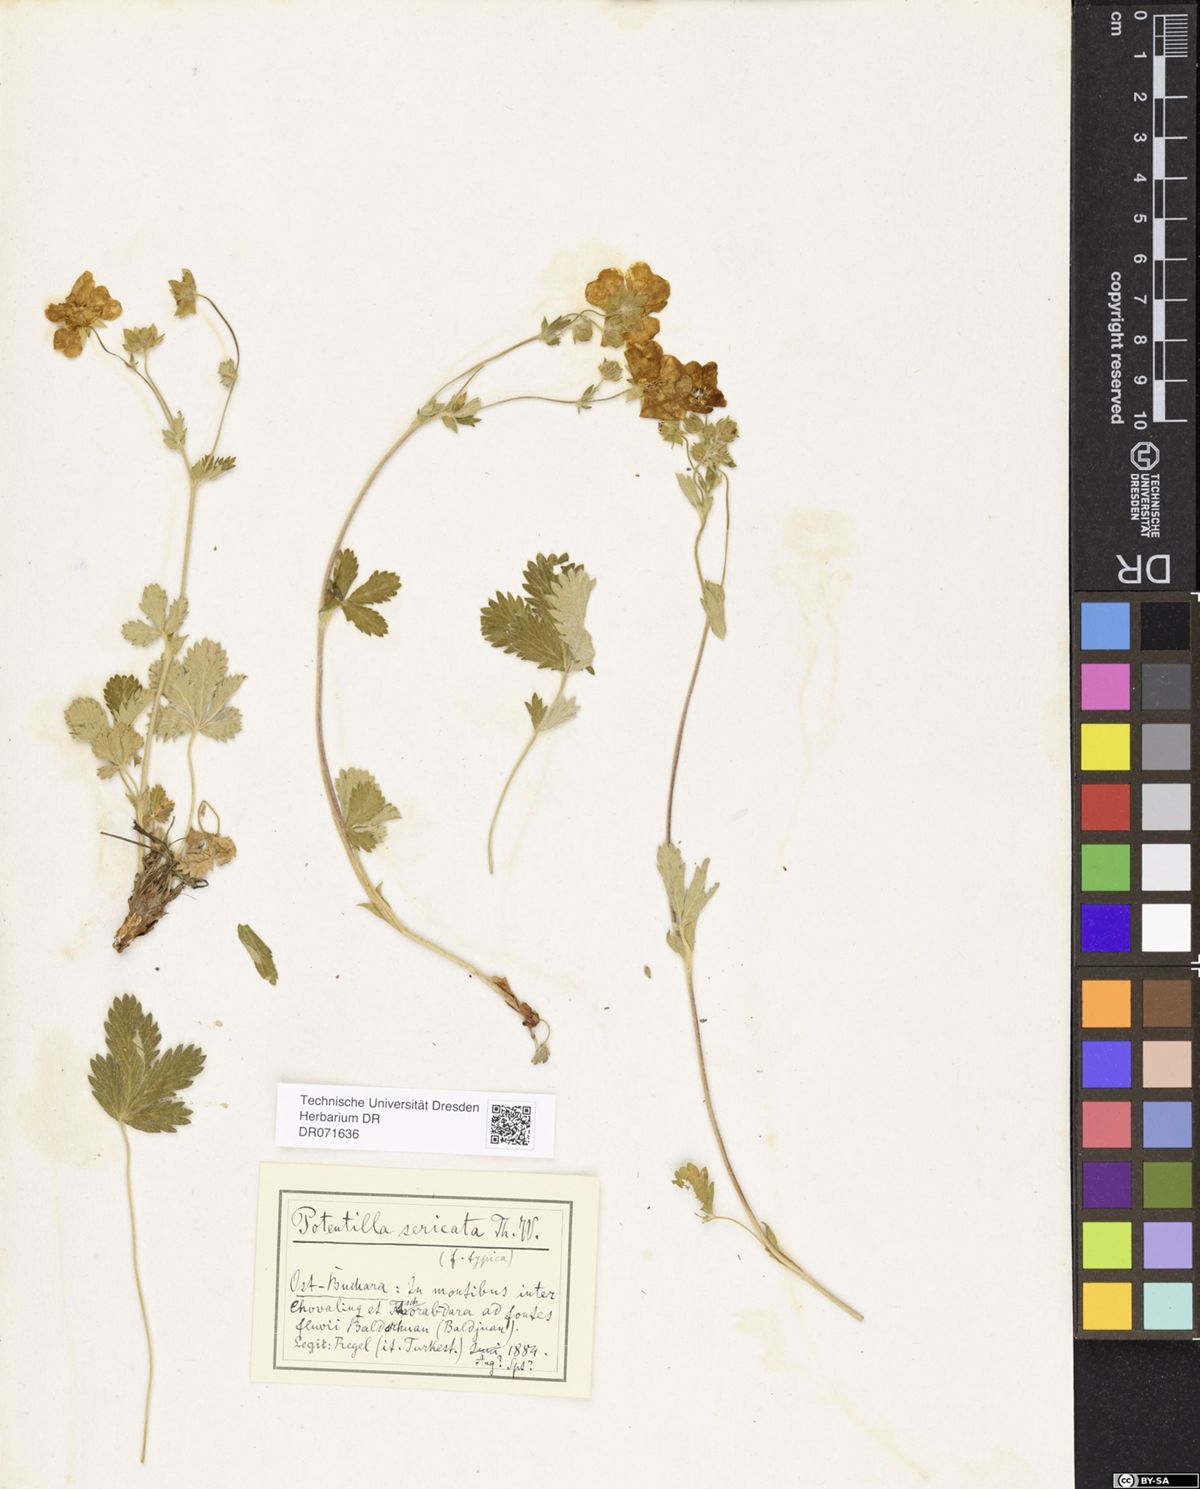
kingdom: Plantae
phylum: Tracheophyta
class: Magnoliopsida
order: Rosales
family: Rosaceae
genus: Potentilla
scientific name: Potentilla algida
